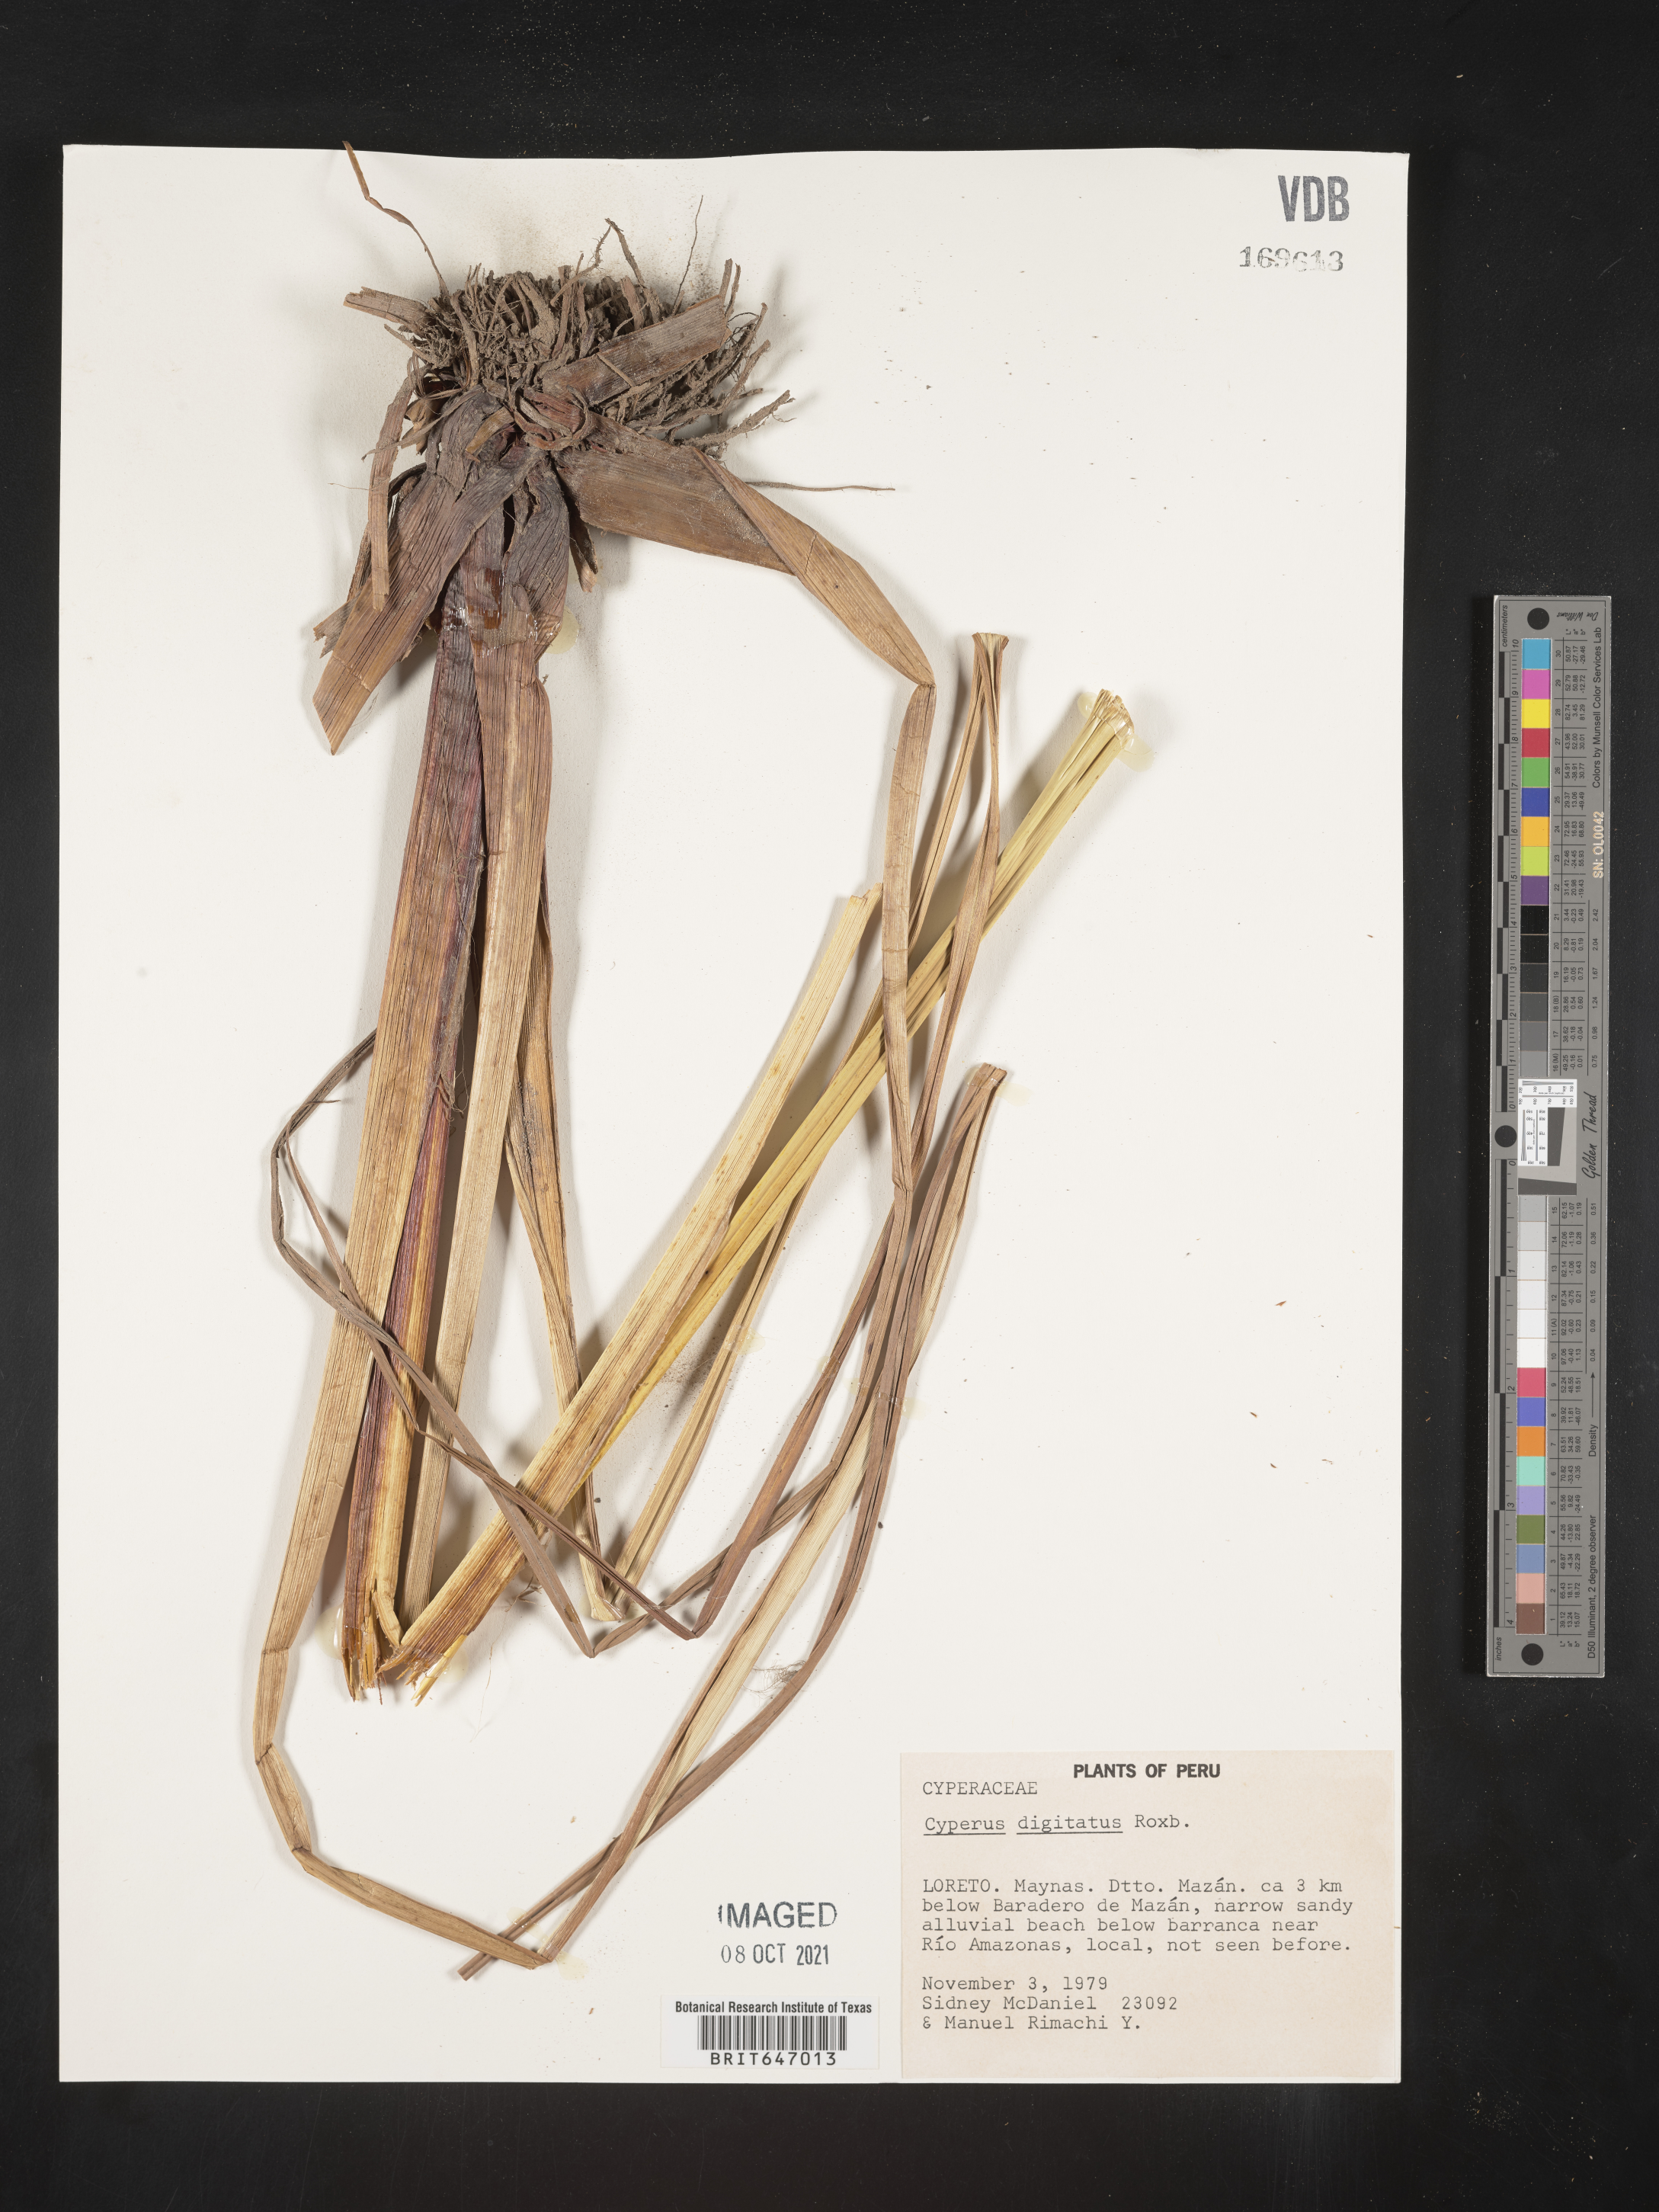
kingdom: Plantae
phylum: Tracheophyta
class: Liliopsida
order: Poales
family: Cyperaceae
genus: Cyperus
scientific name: Cyperus digitatus
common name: Finger flatsedge
